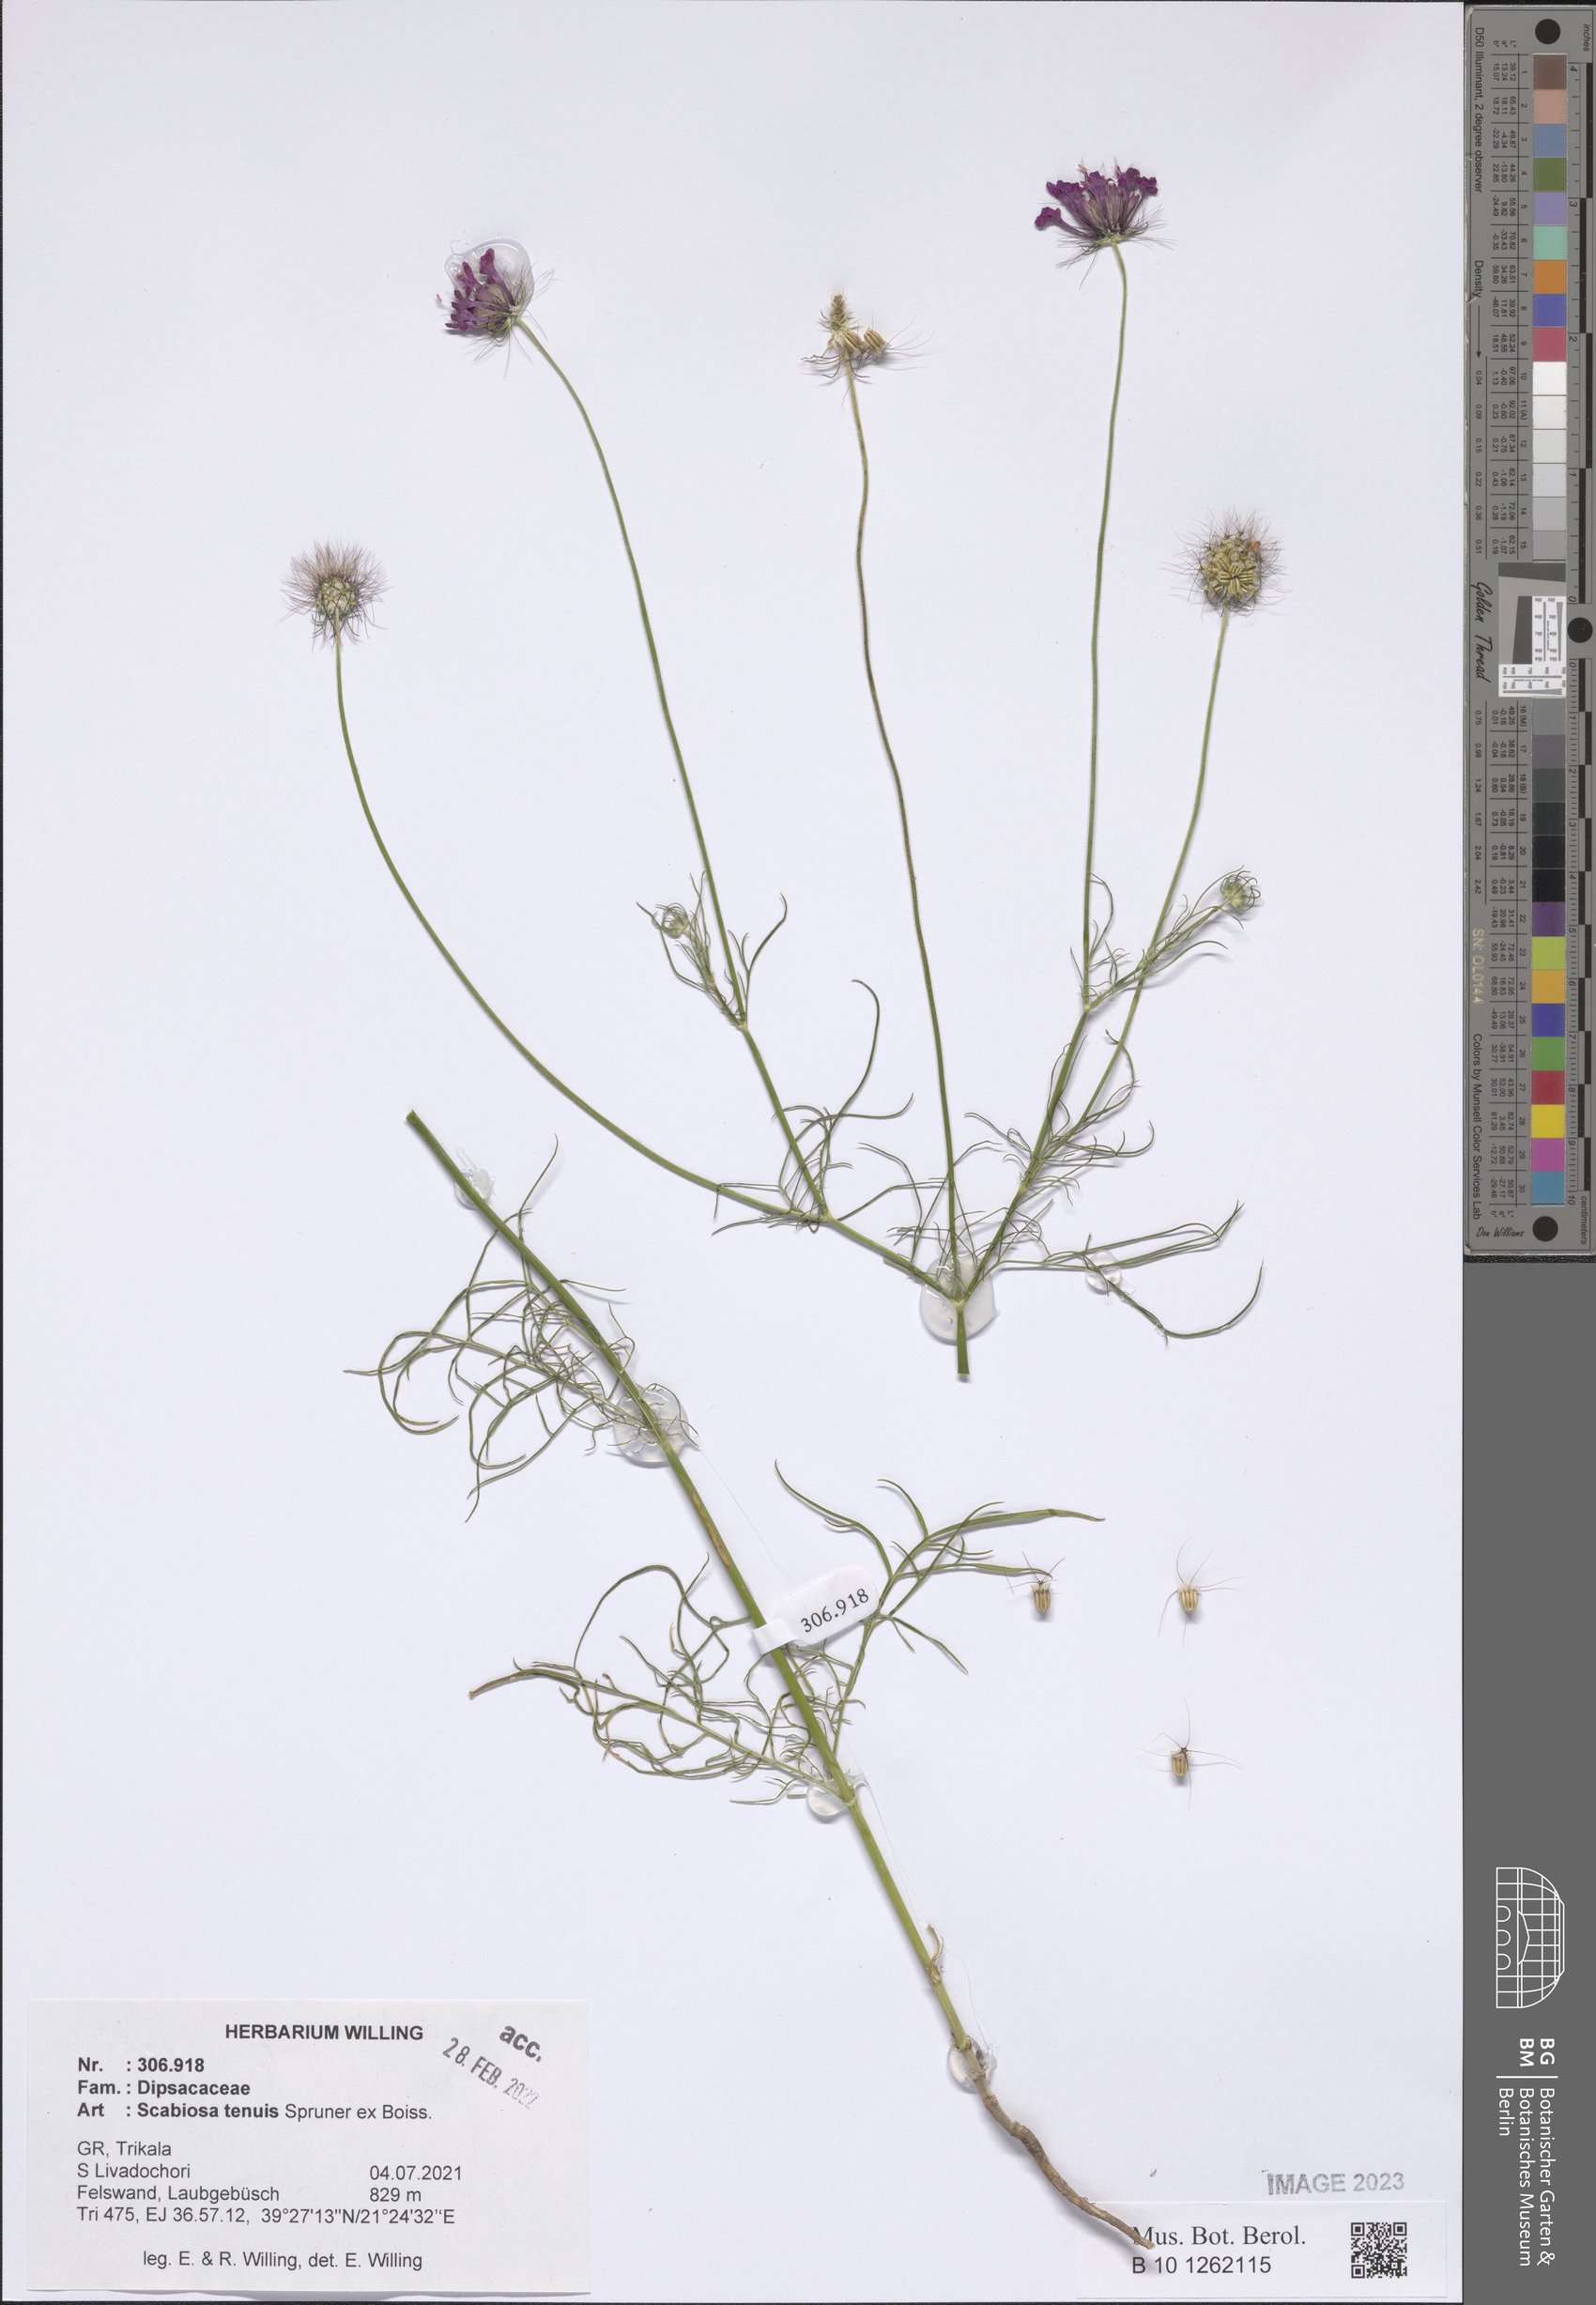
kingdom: Plantae
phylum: Tracheophyta
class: Magnoliopsida
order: Dipsacales
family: Caprifoliaceae
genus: Scabiosa
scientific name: Scabiosa tenuis
